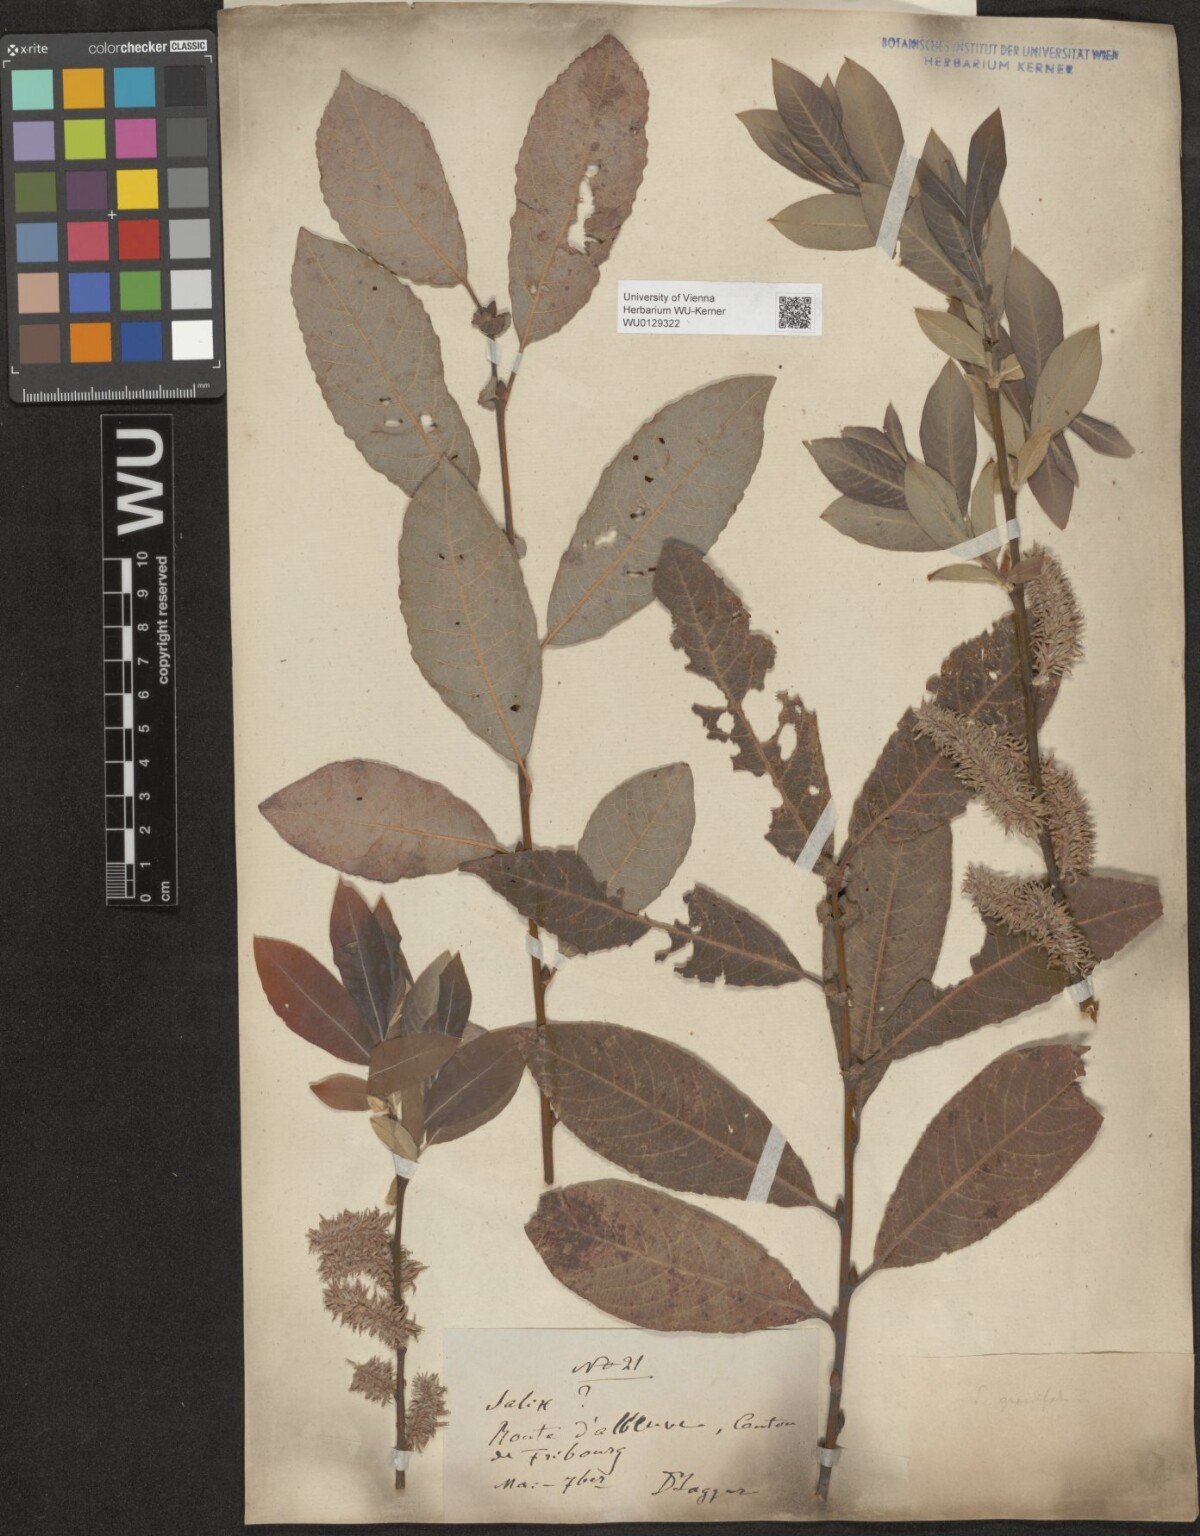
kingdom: Plantae
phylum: Tracheophyta
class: Magnoliopsida
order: Malpighiales
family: Salicaceae
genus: Salix
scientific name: Salix appendiculata
